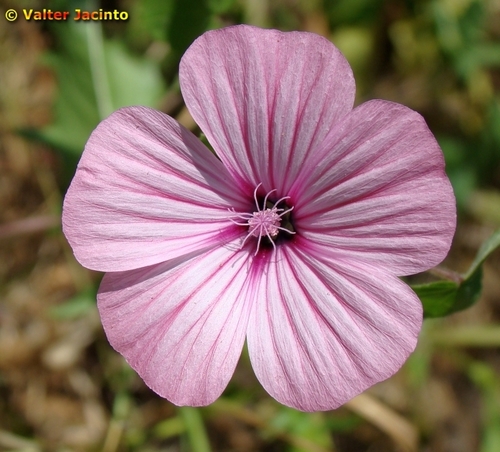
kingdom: Plantae
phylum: Tracheophyta
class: Magnoliopsida
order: Malvales
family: Malvaceae
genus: Malva
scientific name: Malva trimestris
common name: Royal mallow
